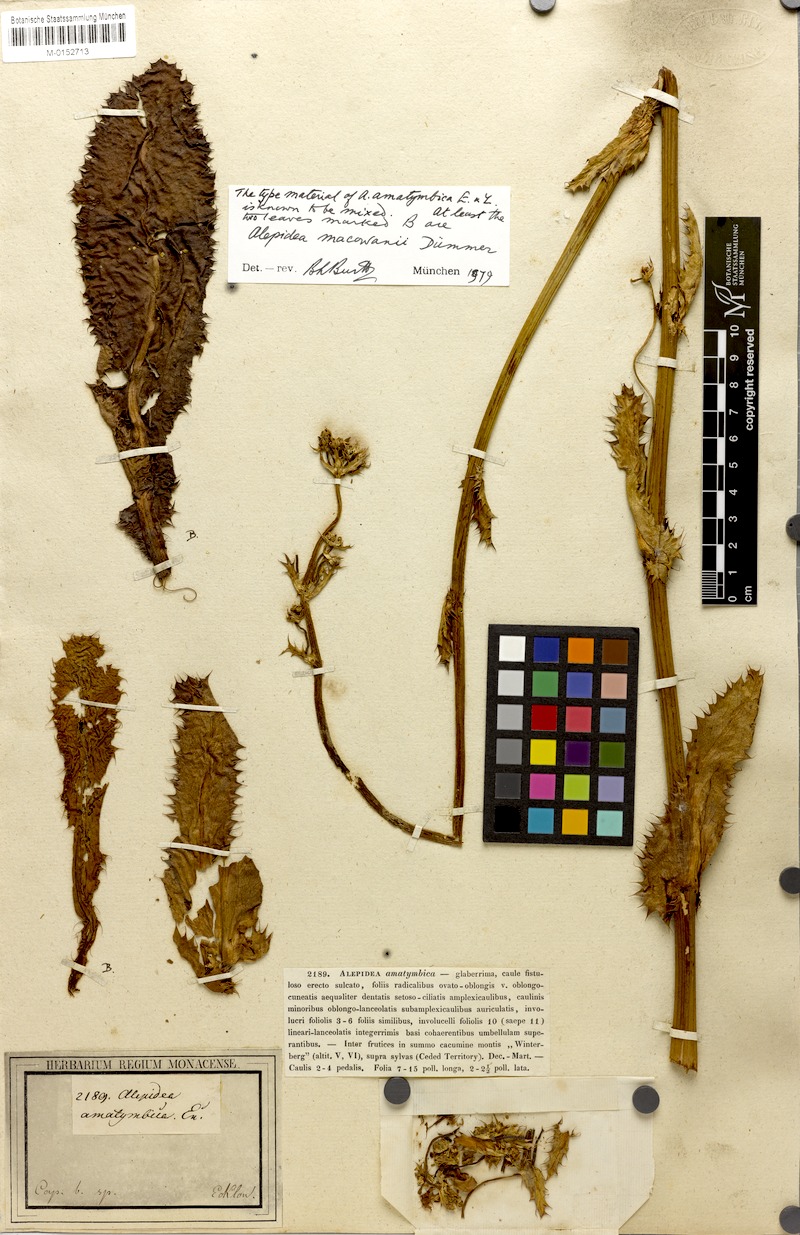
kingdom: Plantae
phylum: Tracheophyta
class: Magnoliopsida
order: Apiales
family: Apiaceae
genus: Alepidea
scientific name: Alepidea amatymbica
